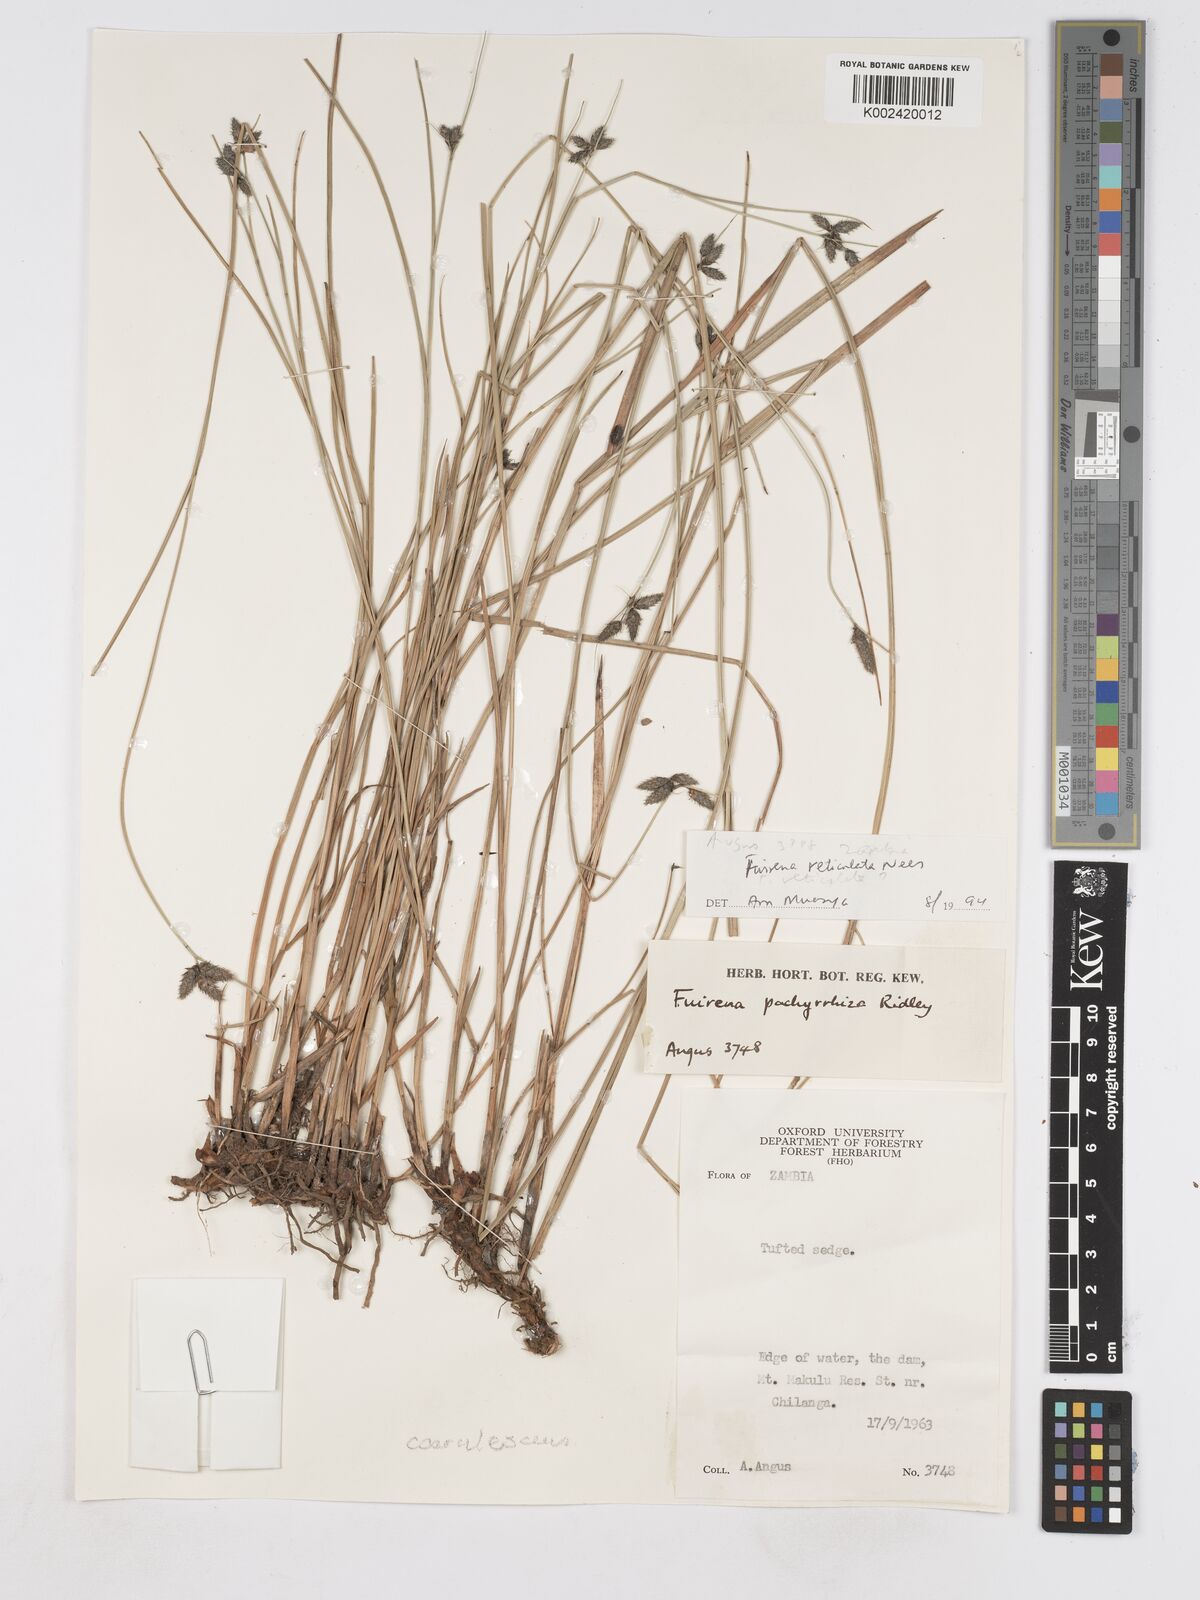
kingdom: Plantae
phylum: Tracheophyta
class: Liliopsida
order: Poales
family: Cyperaceae
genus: Fuirena
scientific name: Fuirena coerulescens
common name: Blue umbrella-sedge
